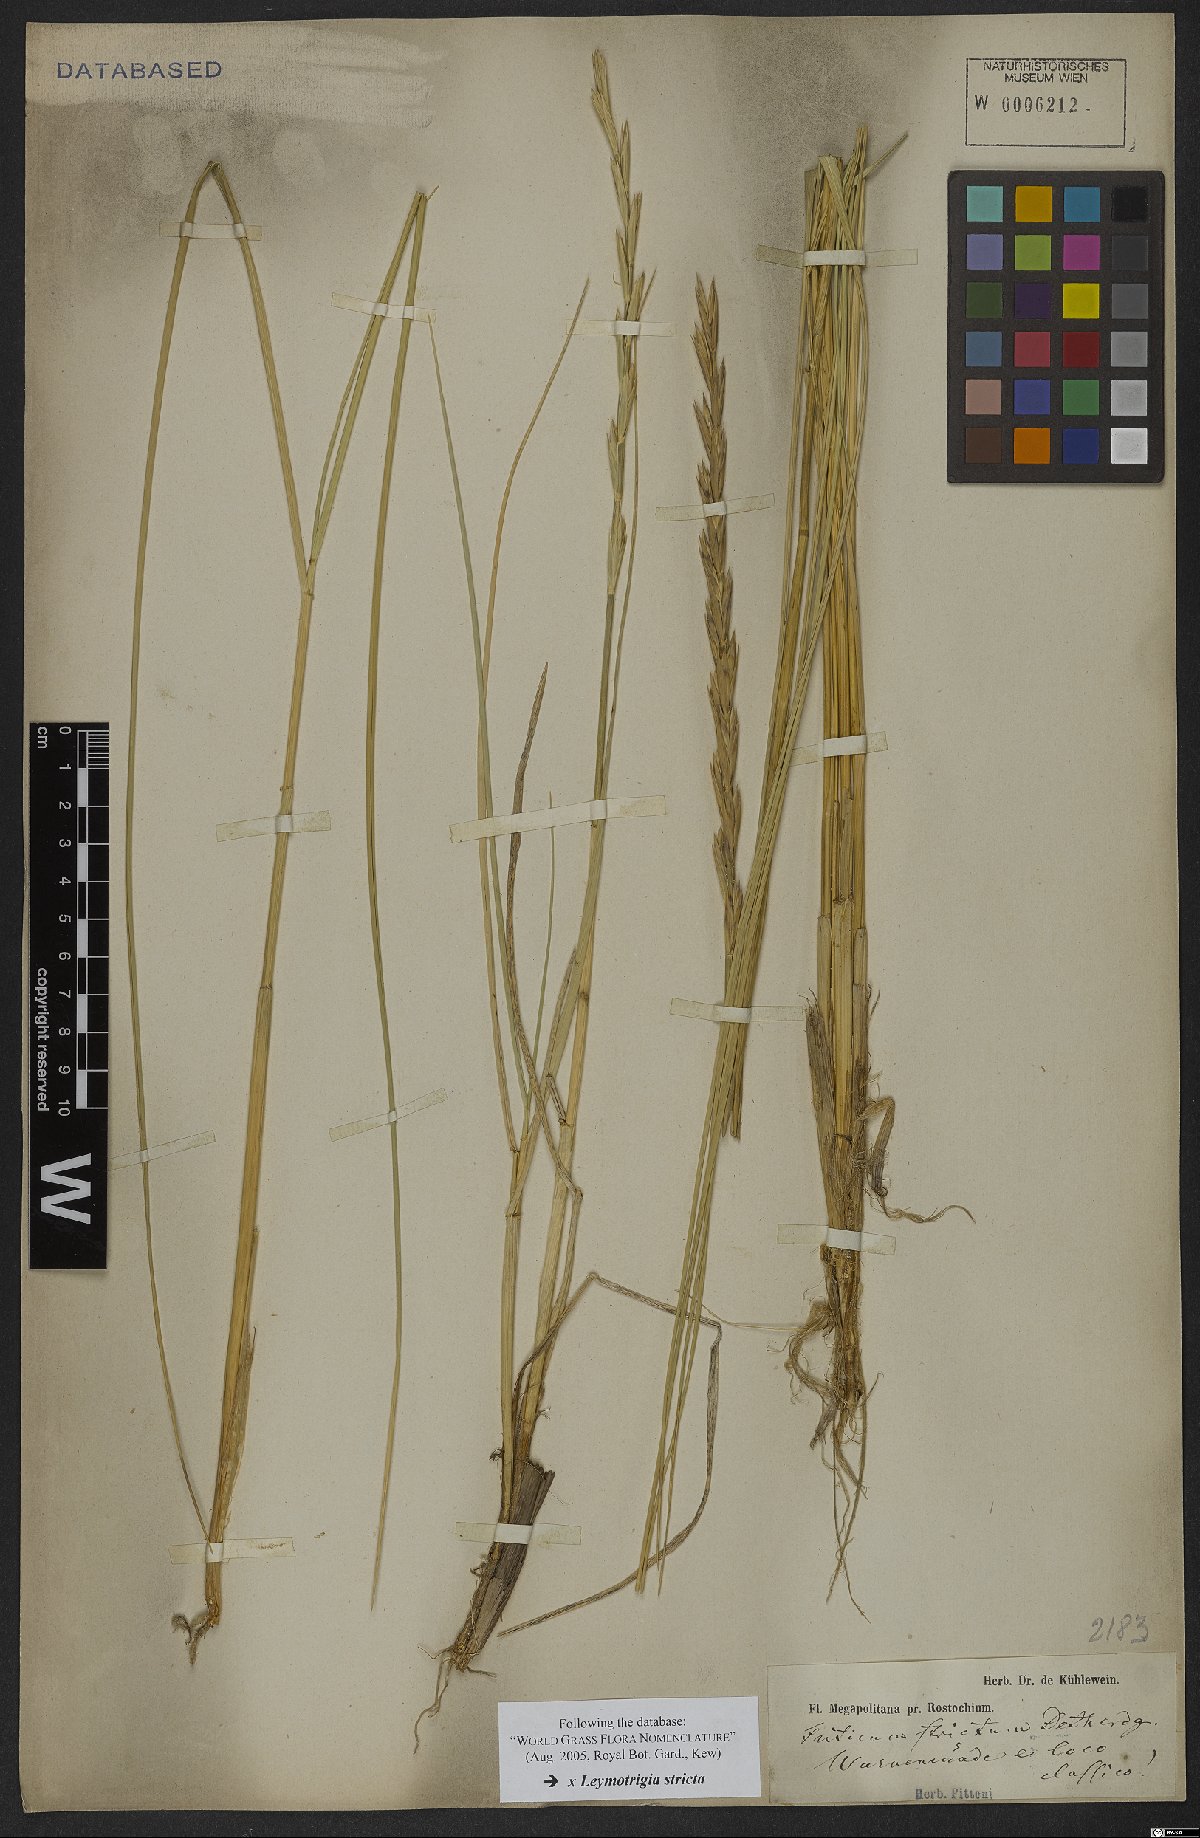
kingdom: Plantae
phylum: Tracheophyta
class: Liliopsida
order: Poales
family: Poaceae
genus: Elyleymus
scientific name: Elyleymus strictus
